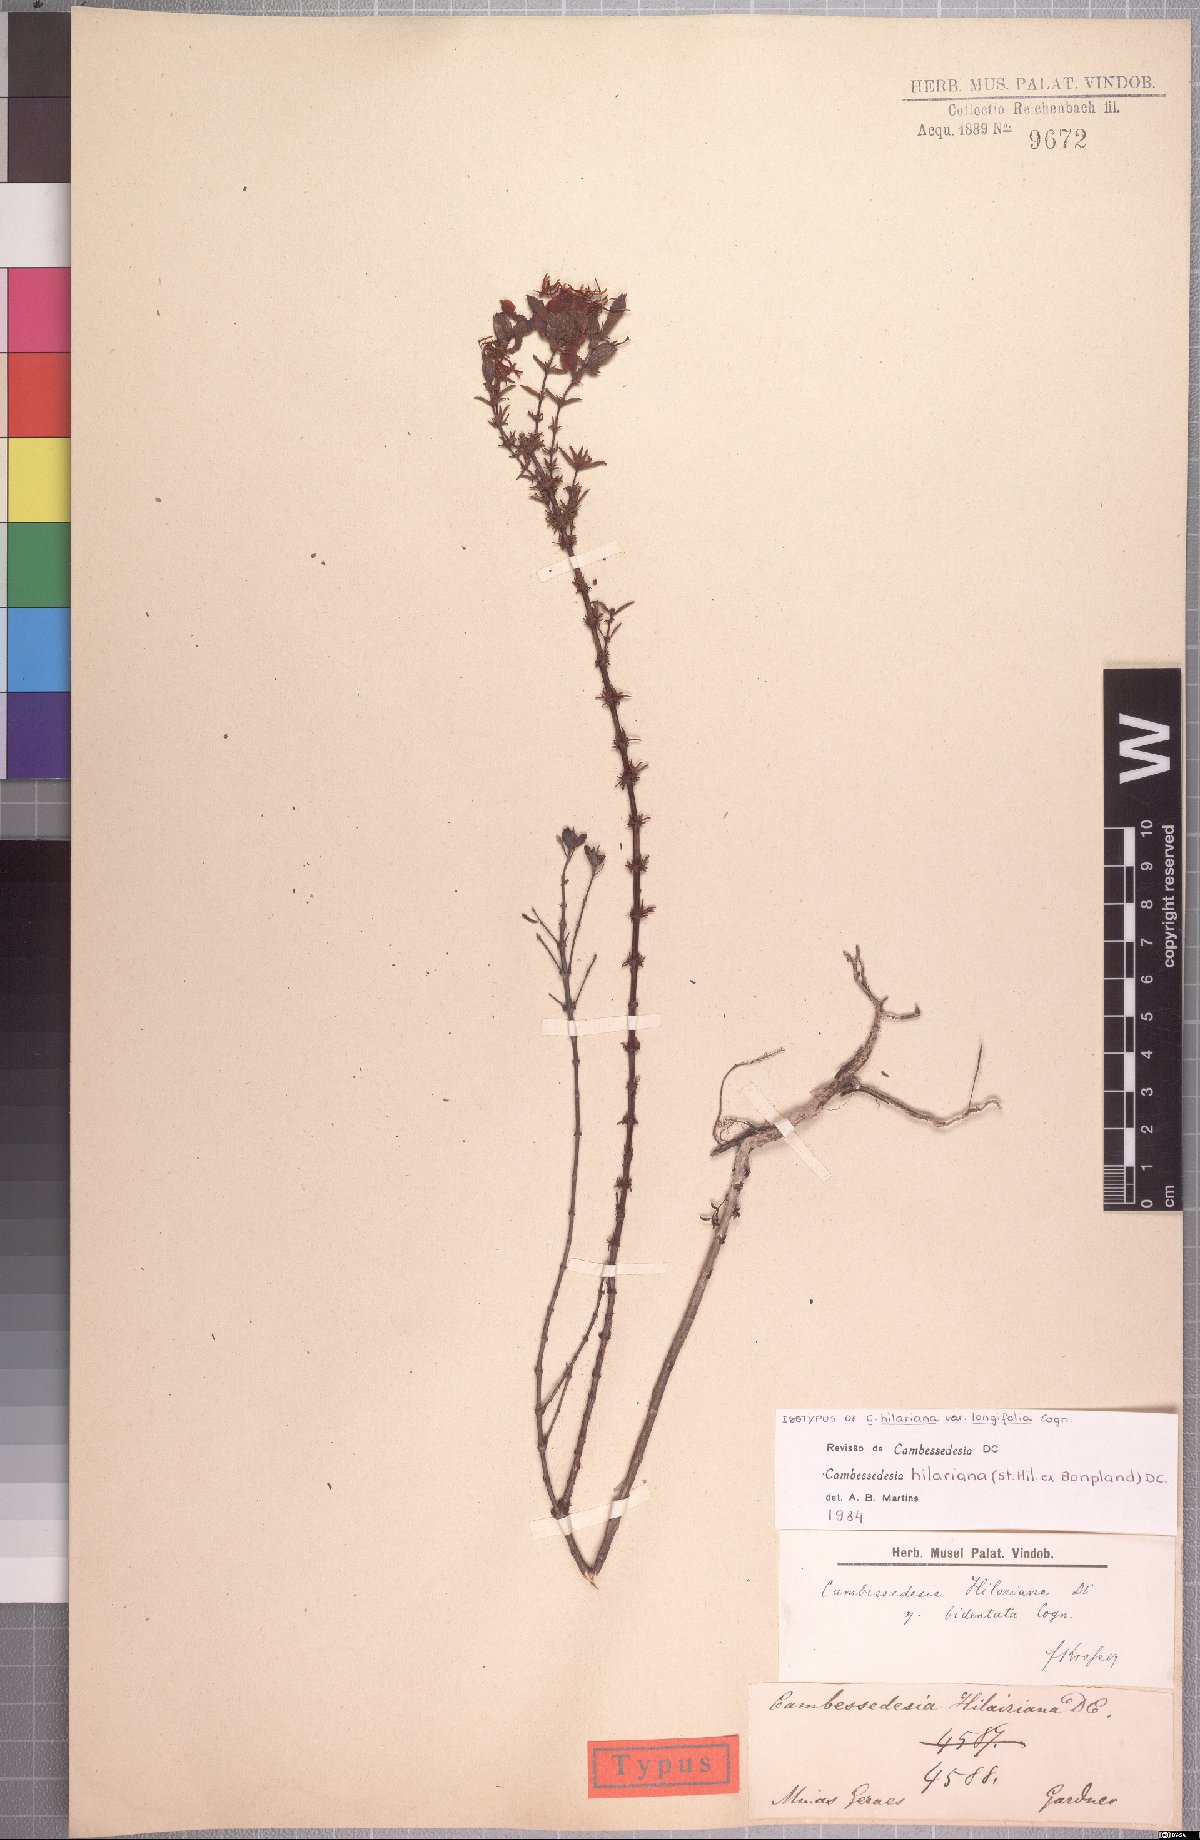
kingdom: Plantae
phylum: Tracheophyta
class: Magnoliopsida
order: Myrtales
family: Melastomataceae
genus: Cambessedesia
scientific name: Cambessedesia hilariana
